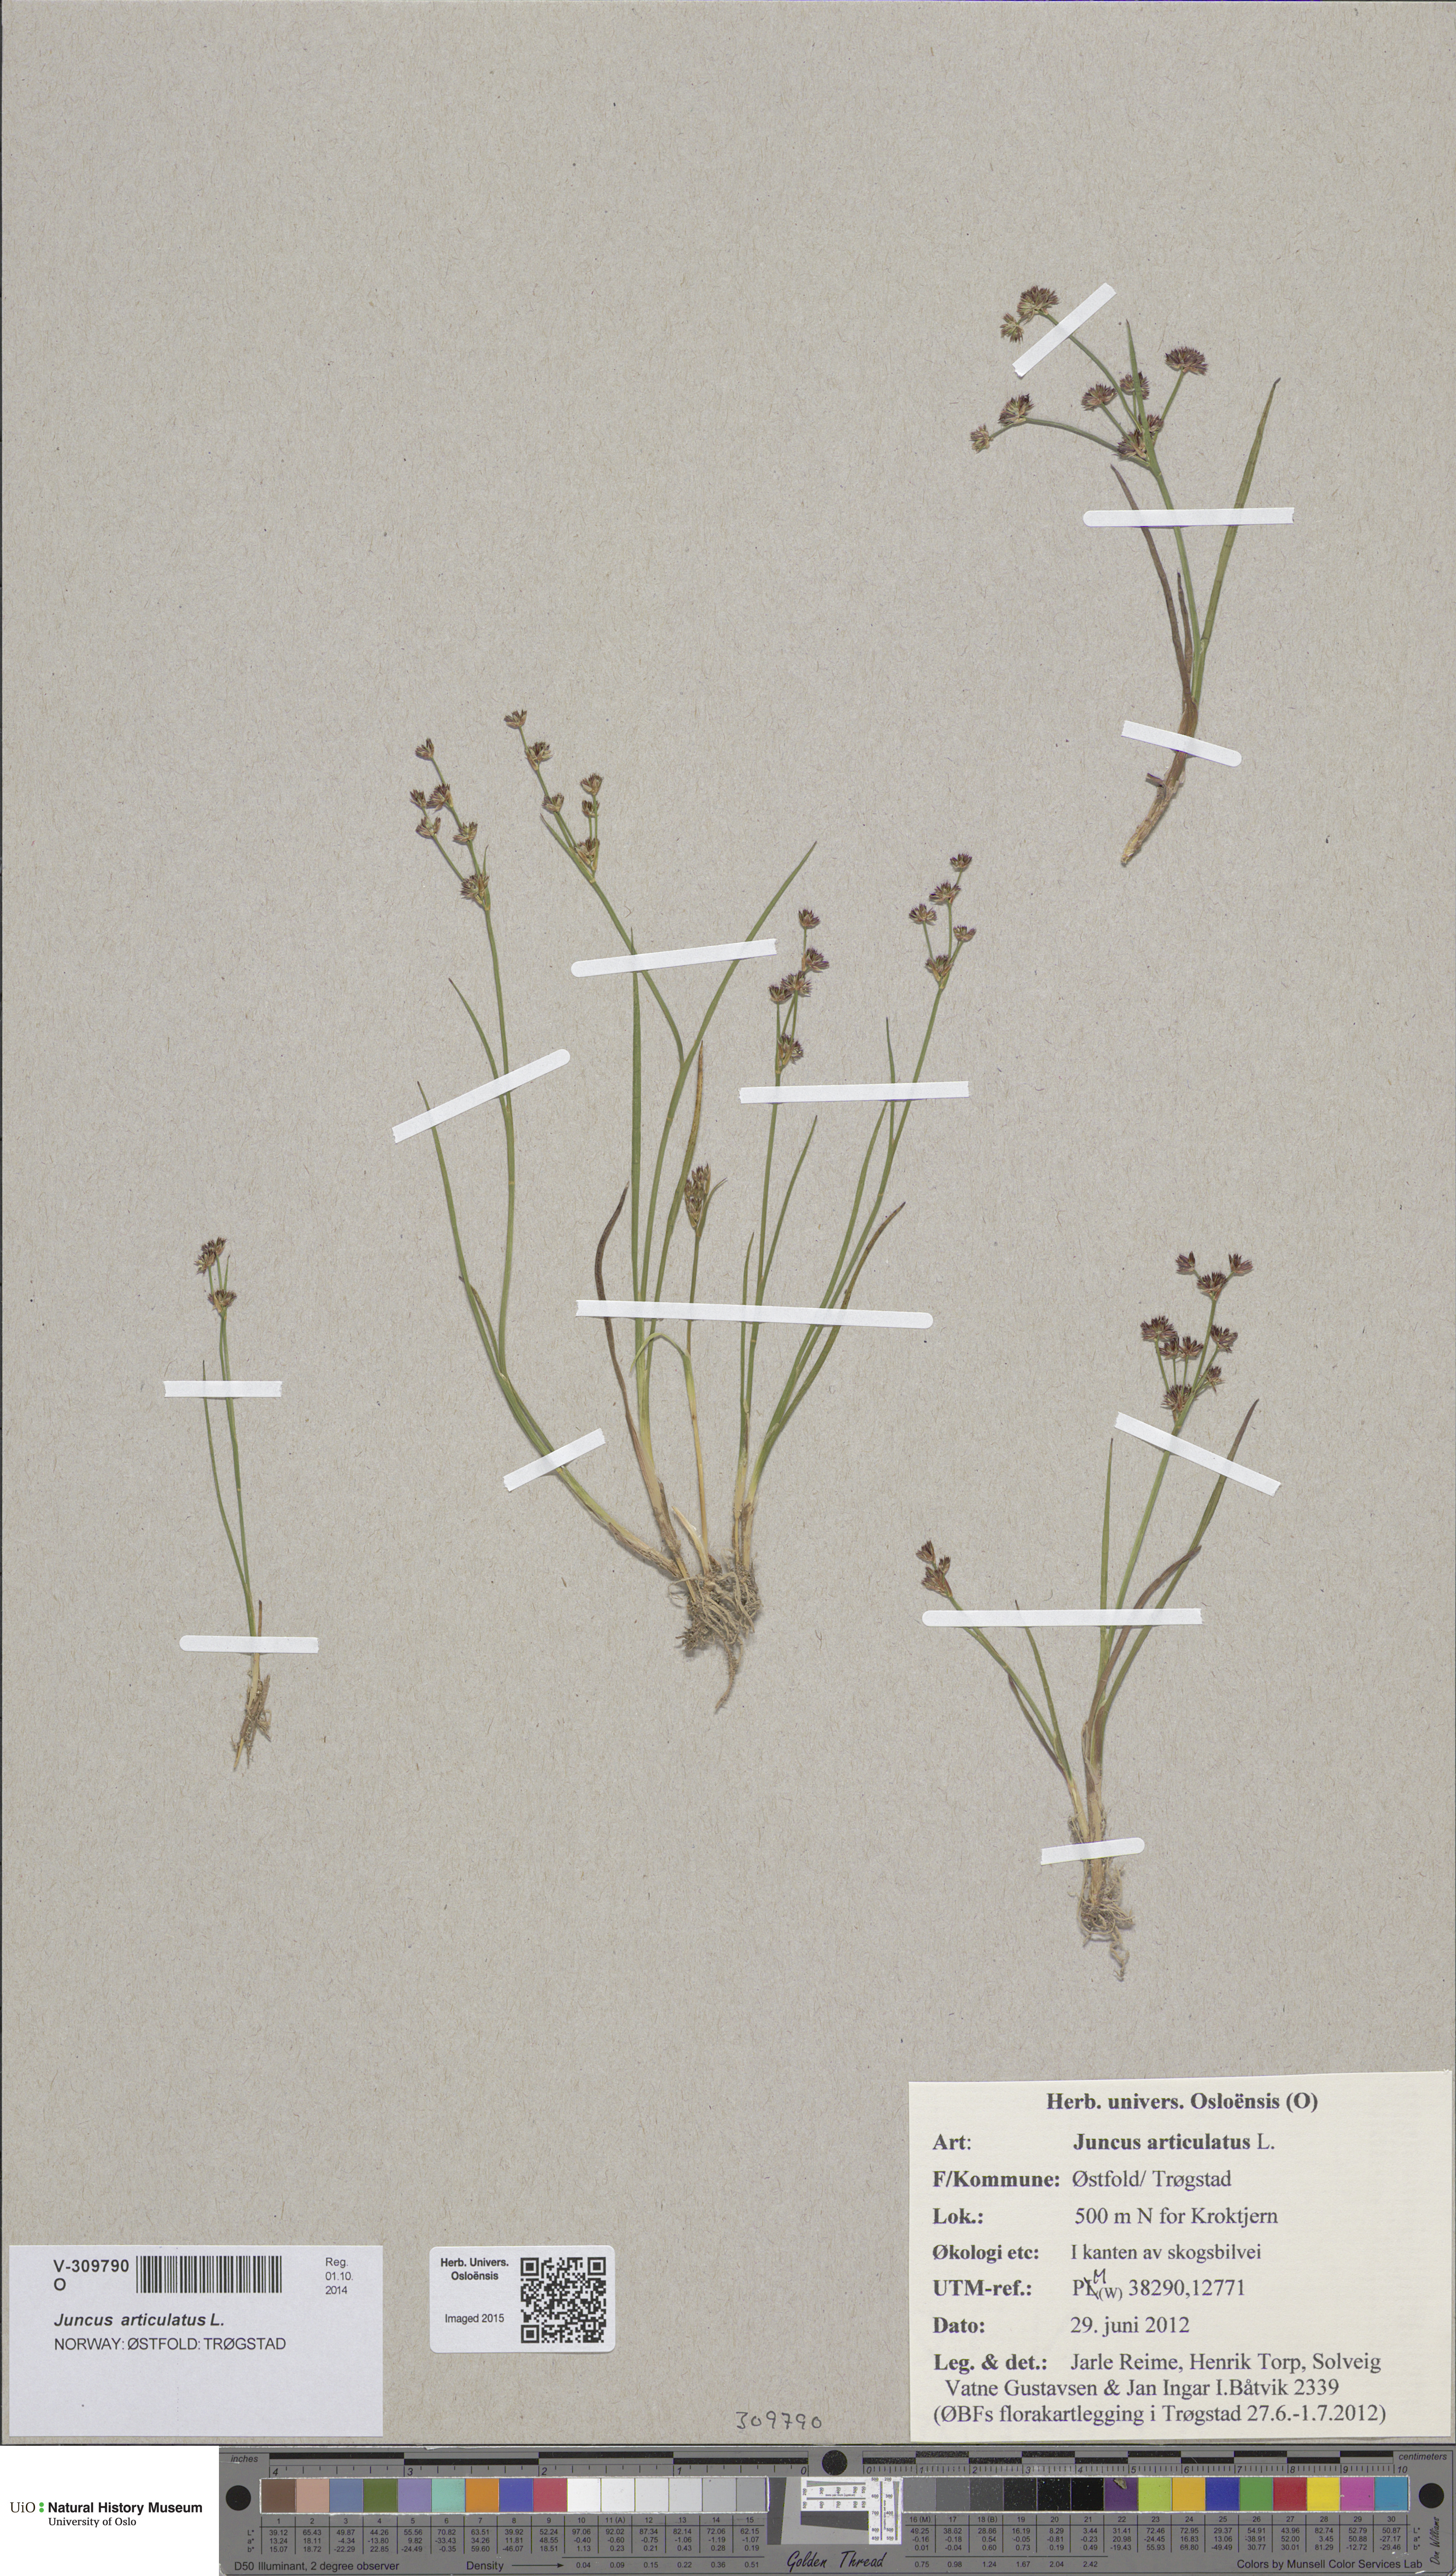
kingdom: Plantae
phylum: Tracheophyta
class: Liliopsida
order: Poales
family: Juncaceae
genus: Juncus
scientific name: Juncus articulatus
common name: Jointed rush
